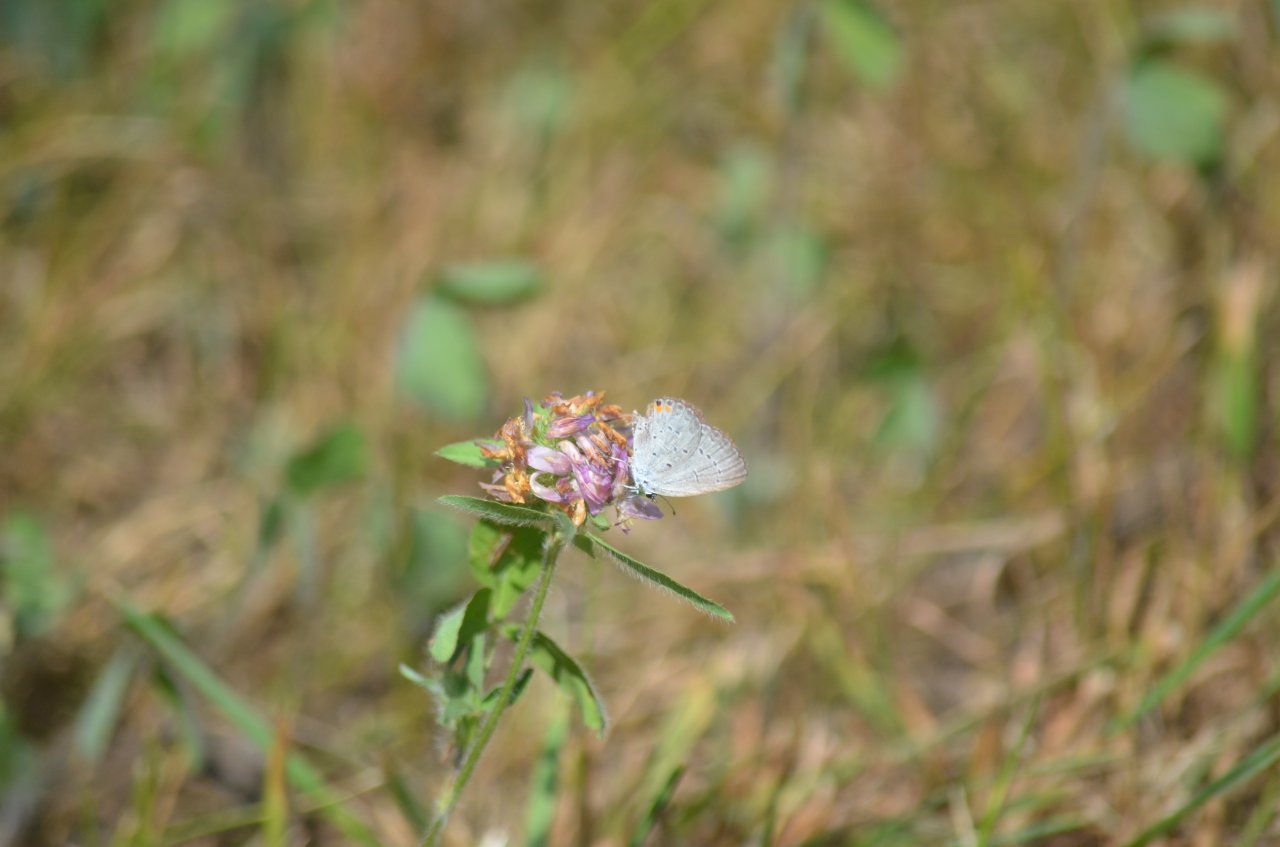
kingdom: Animalia
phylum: Arthropoda
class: Insecta
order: Lepidoptera
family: Lycaenidae
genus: Elkalyce
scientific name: Elkalyce comyntas
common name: Eastern Tailed-Blue
